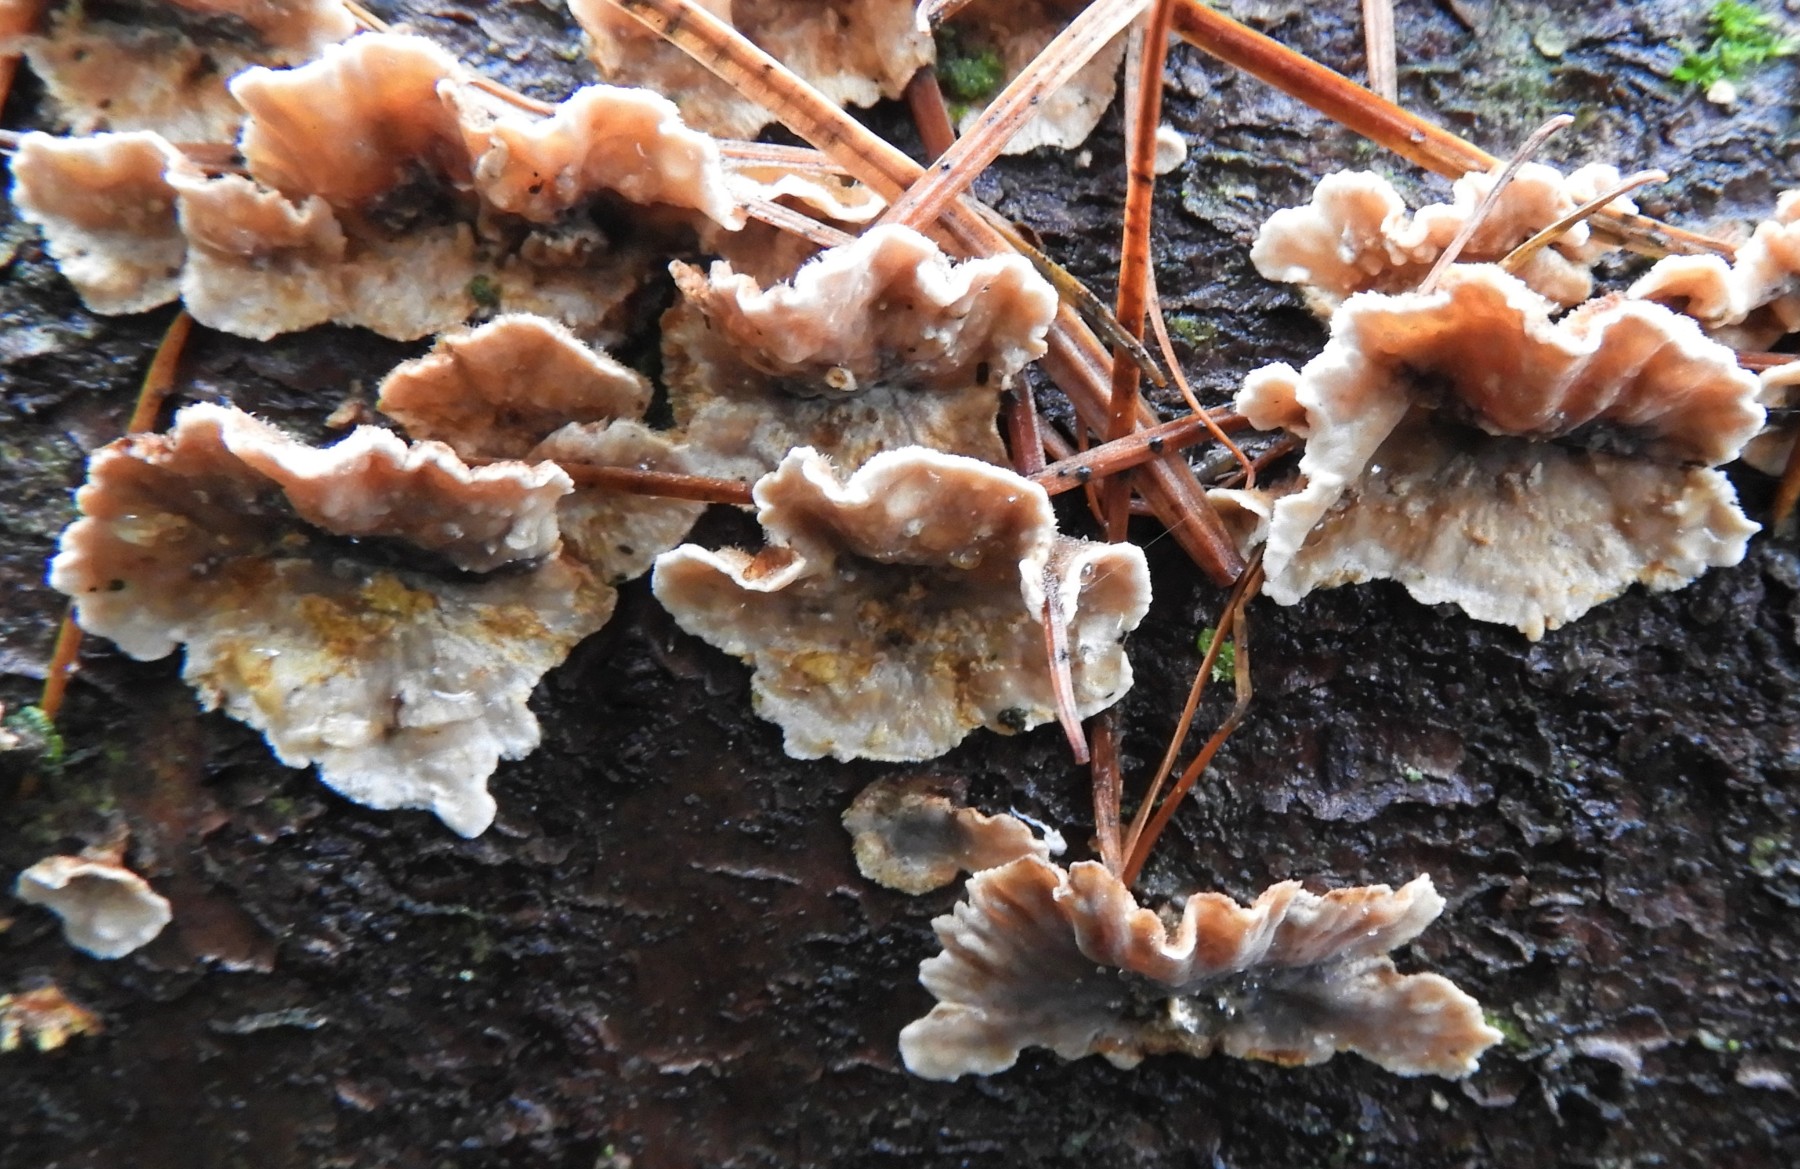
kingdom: Fungi
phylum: Basidiomycota
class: Agaricomycetes
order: Russulales
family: Stereaceae
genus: Stereum
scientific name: Stereum sanguinolentum
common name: blødende lædersvamp
